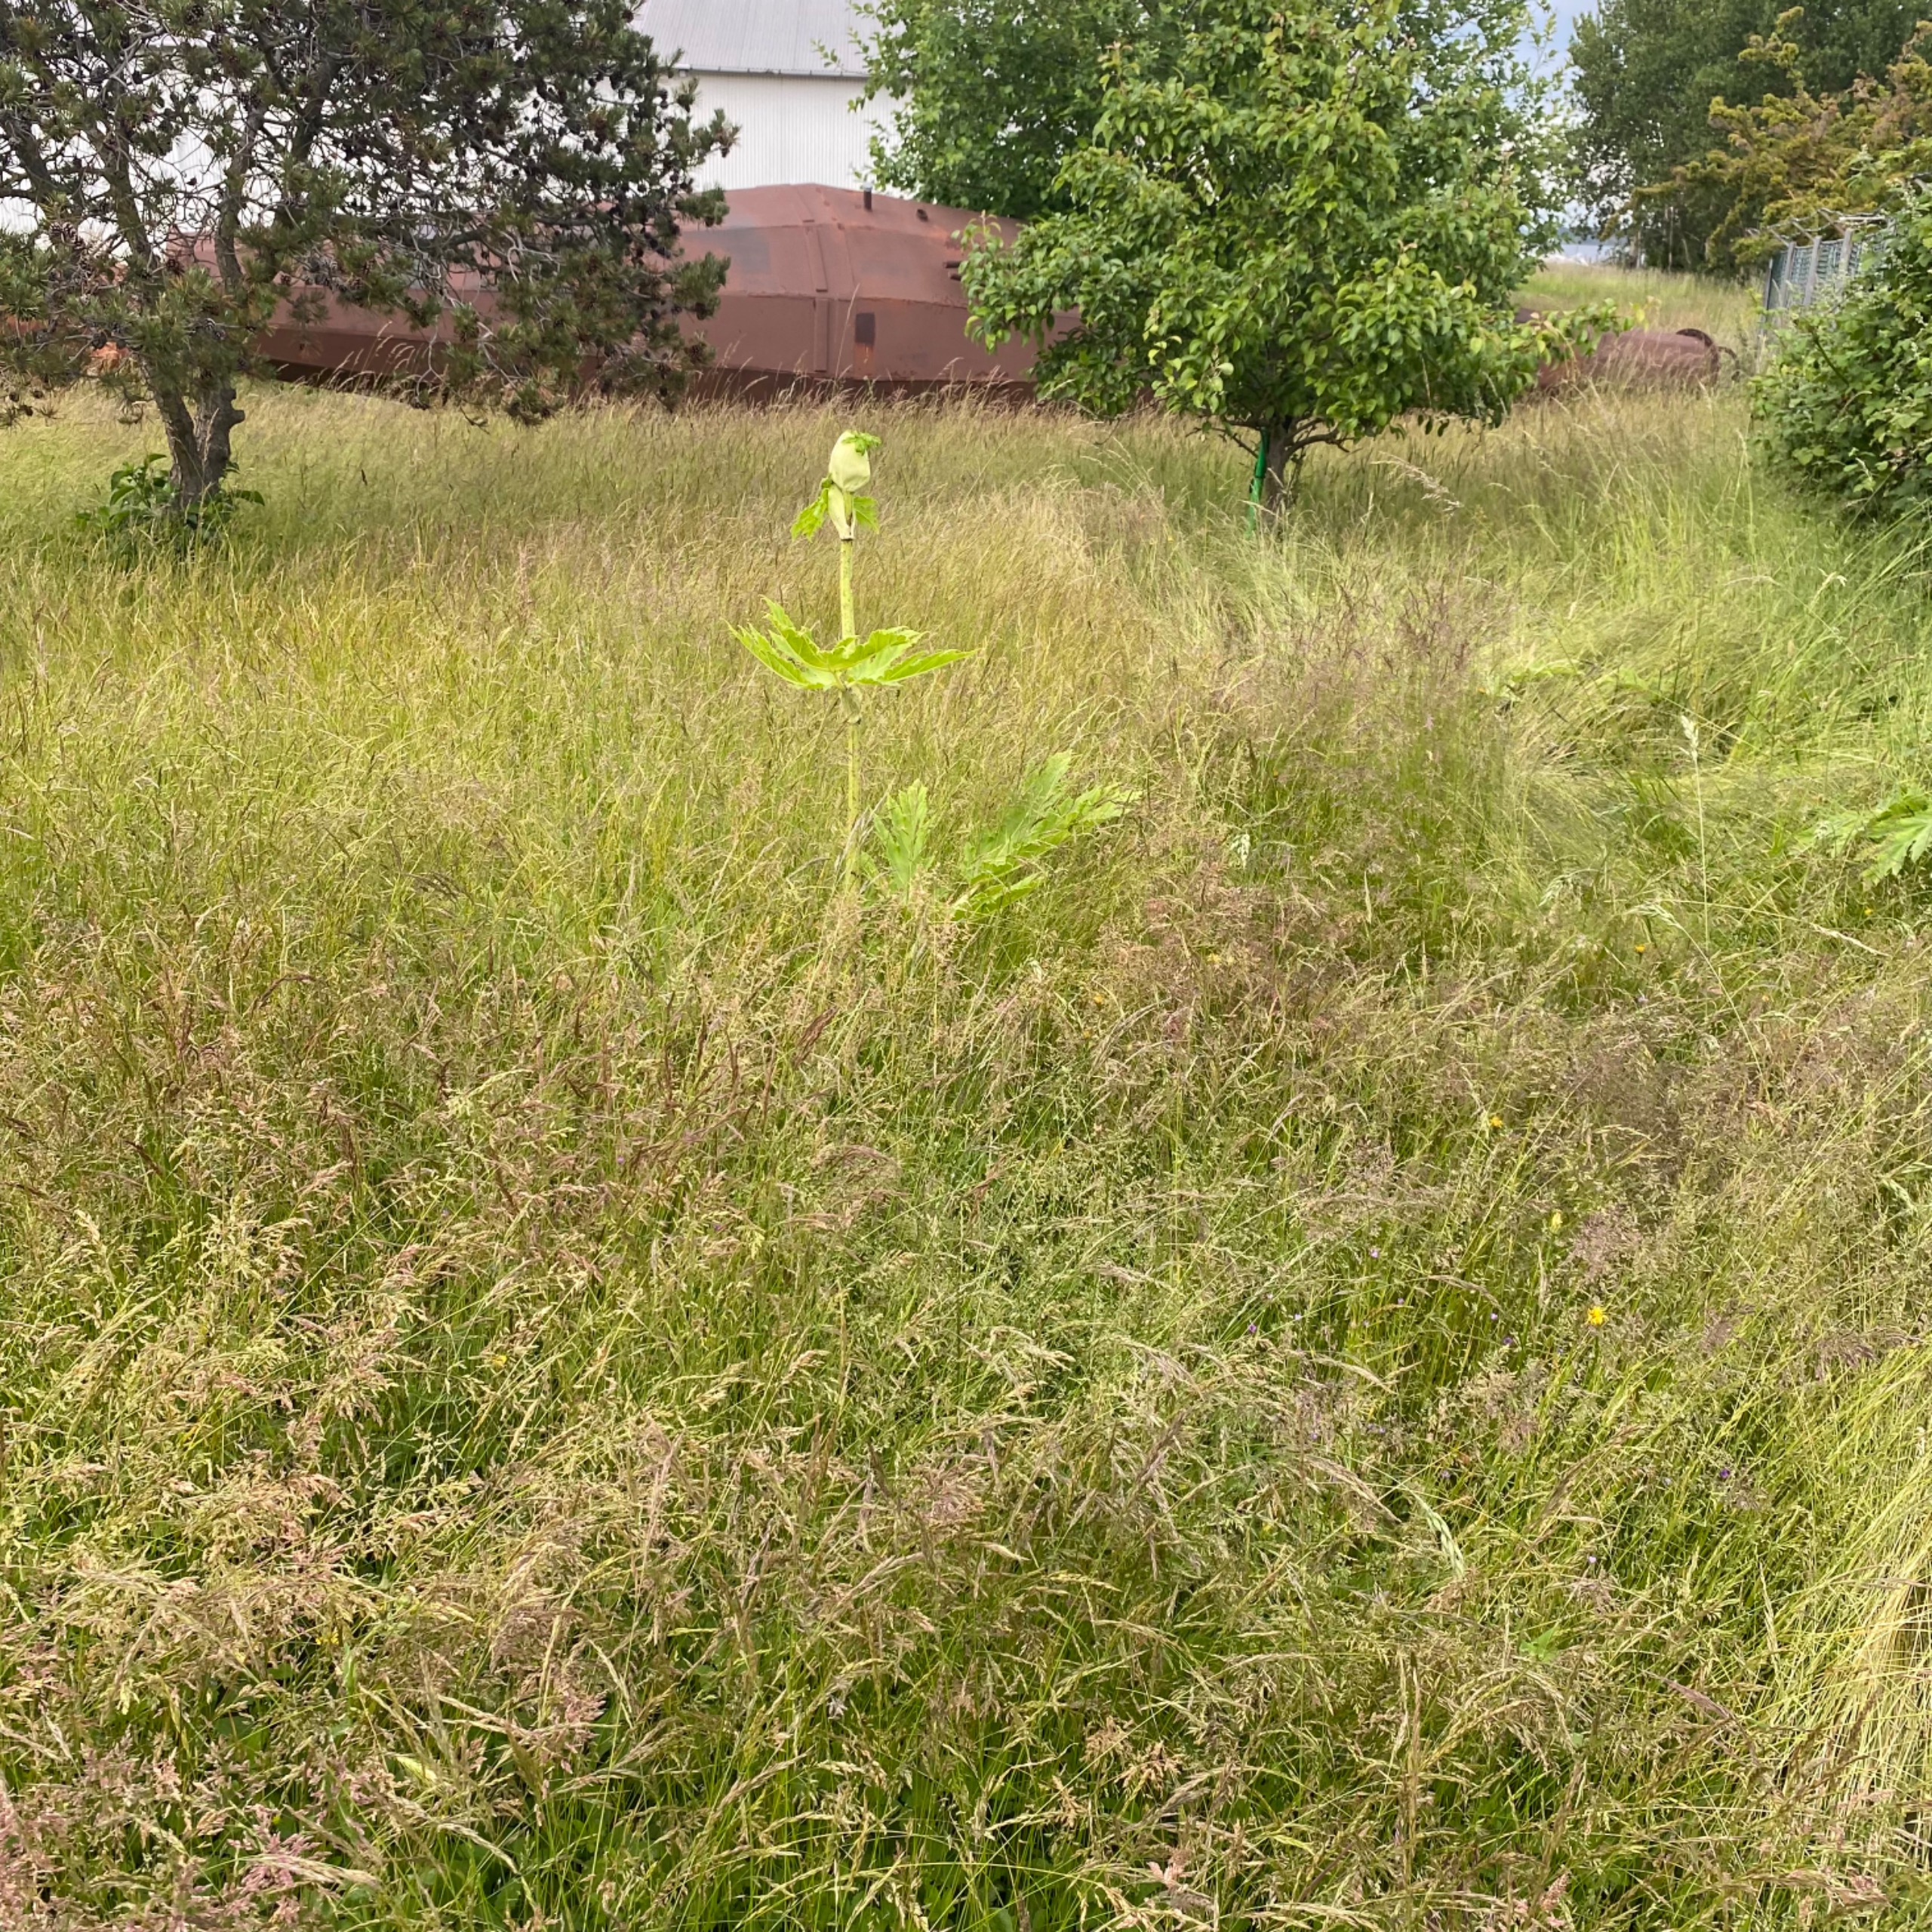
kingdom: Plantae
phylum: Tracheophyta
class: Magnoliopsida
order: Apiales
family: Apiaceae
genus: Heracleum
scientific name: Heracleum mantegazzianum
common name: Kæmpe-bjørneklo
